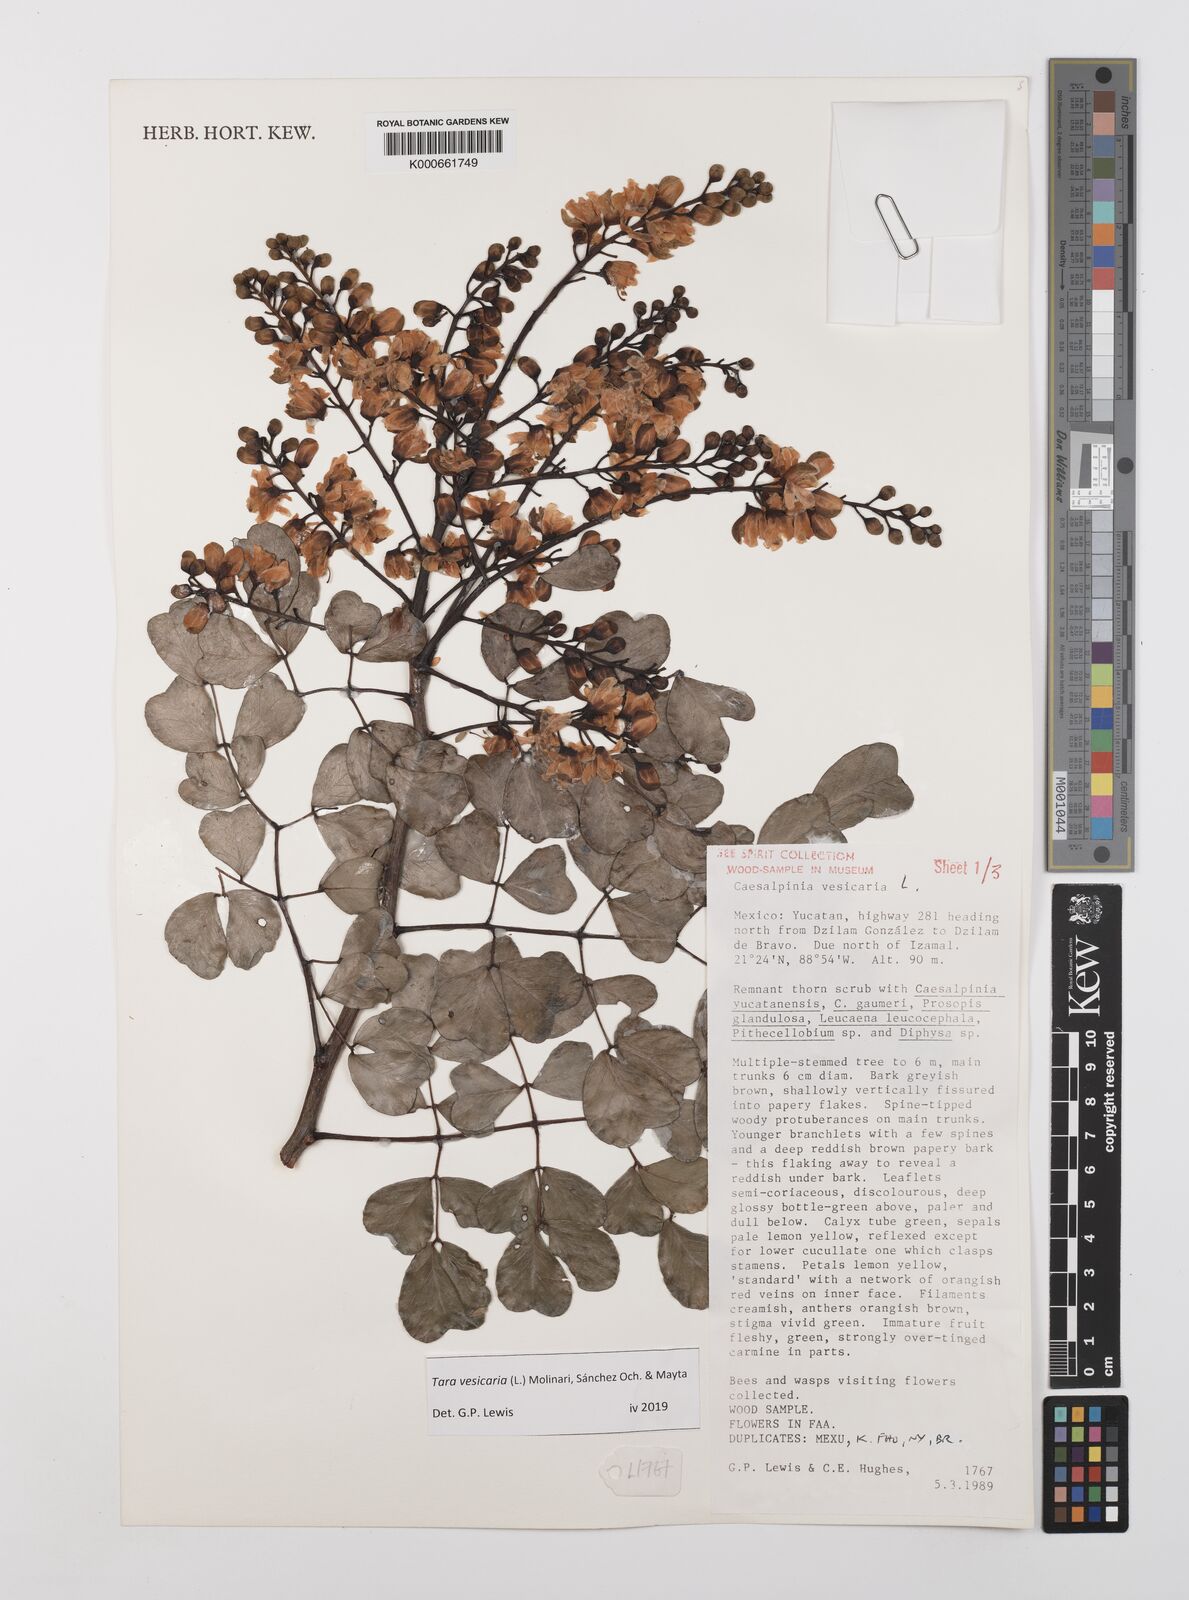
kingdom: Plantae
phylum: Tracheophyta
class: Magnoliopsida
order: Fabales
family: Fabaceae
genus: Tara
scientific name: Tara vesicaria
